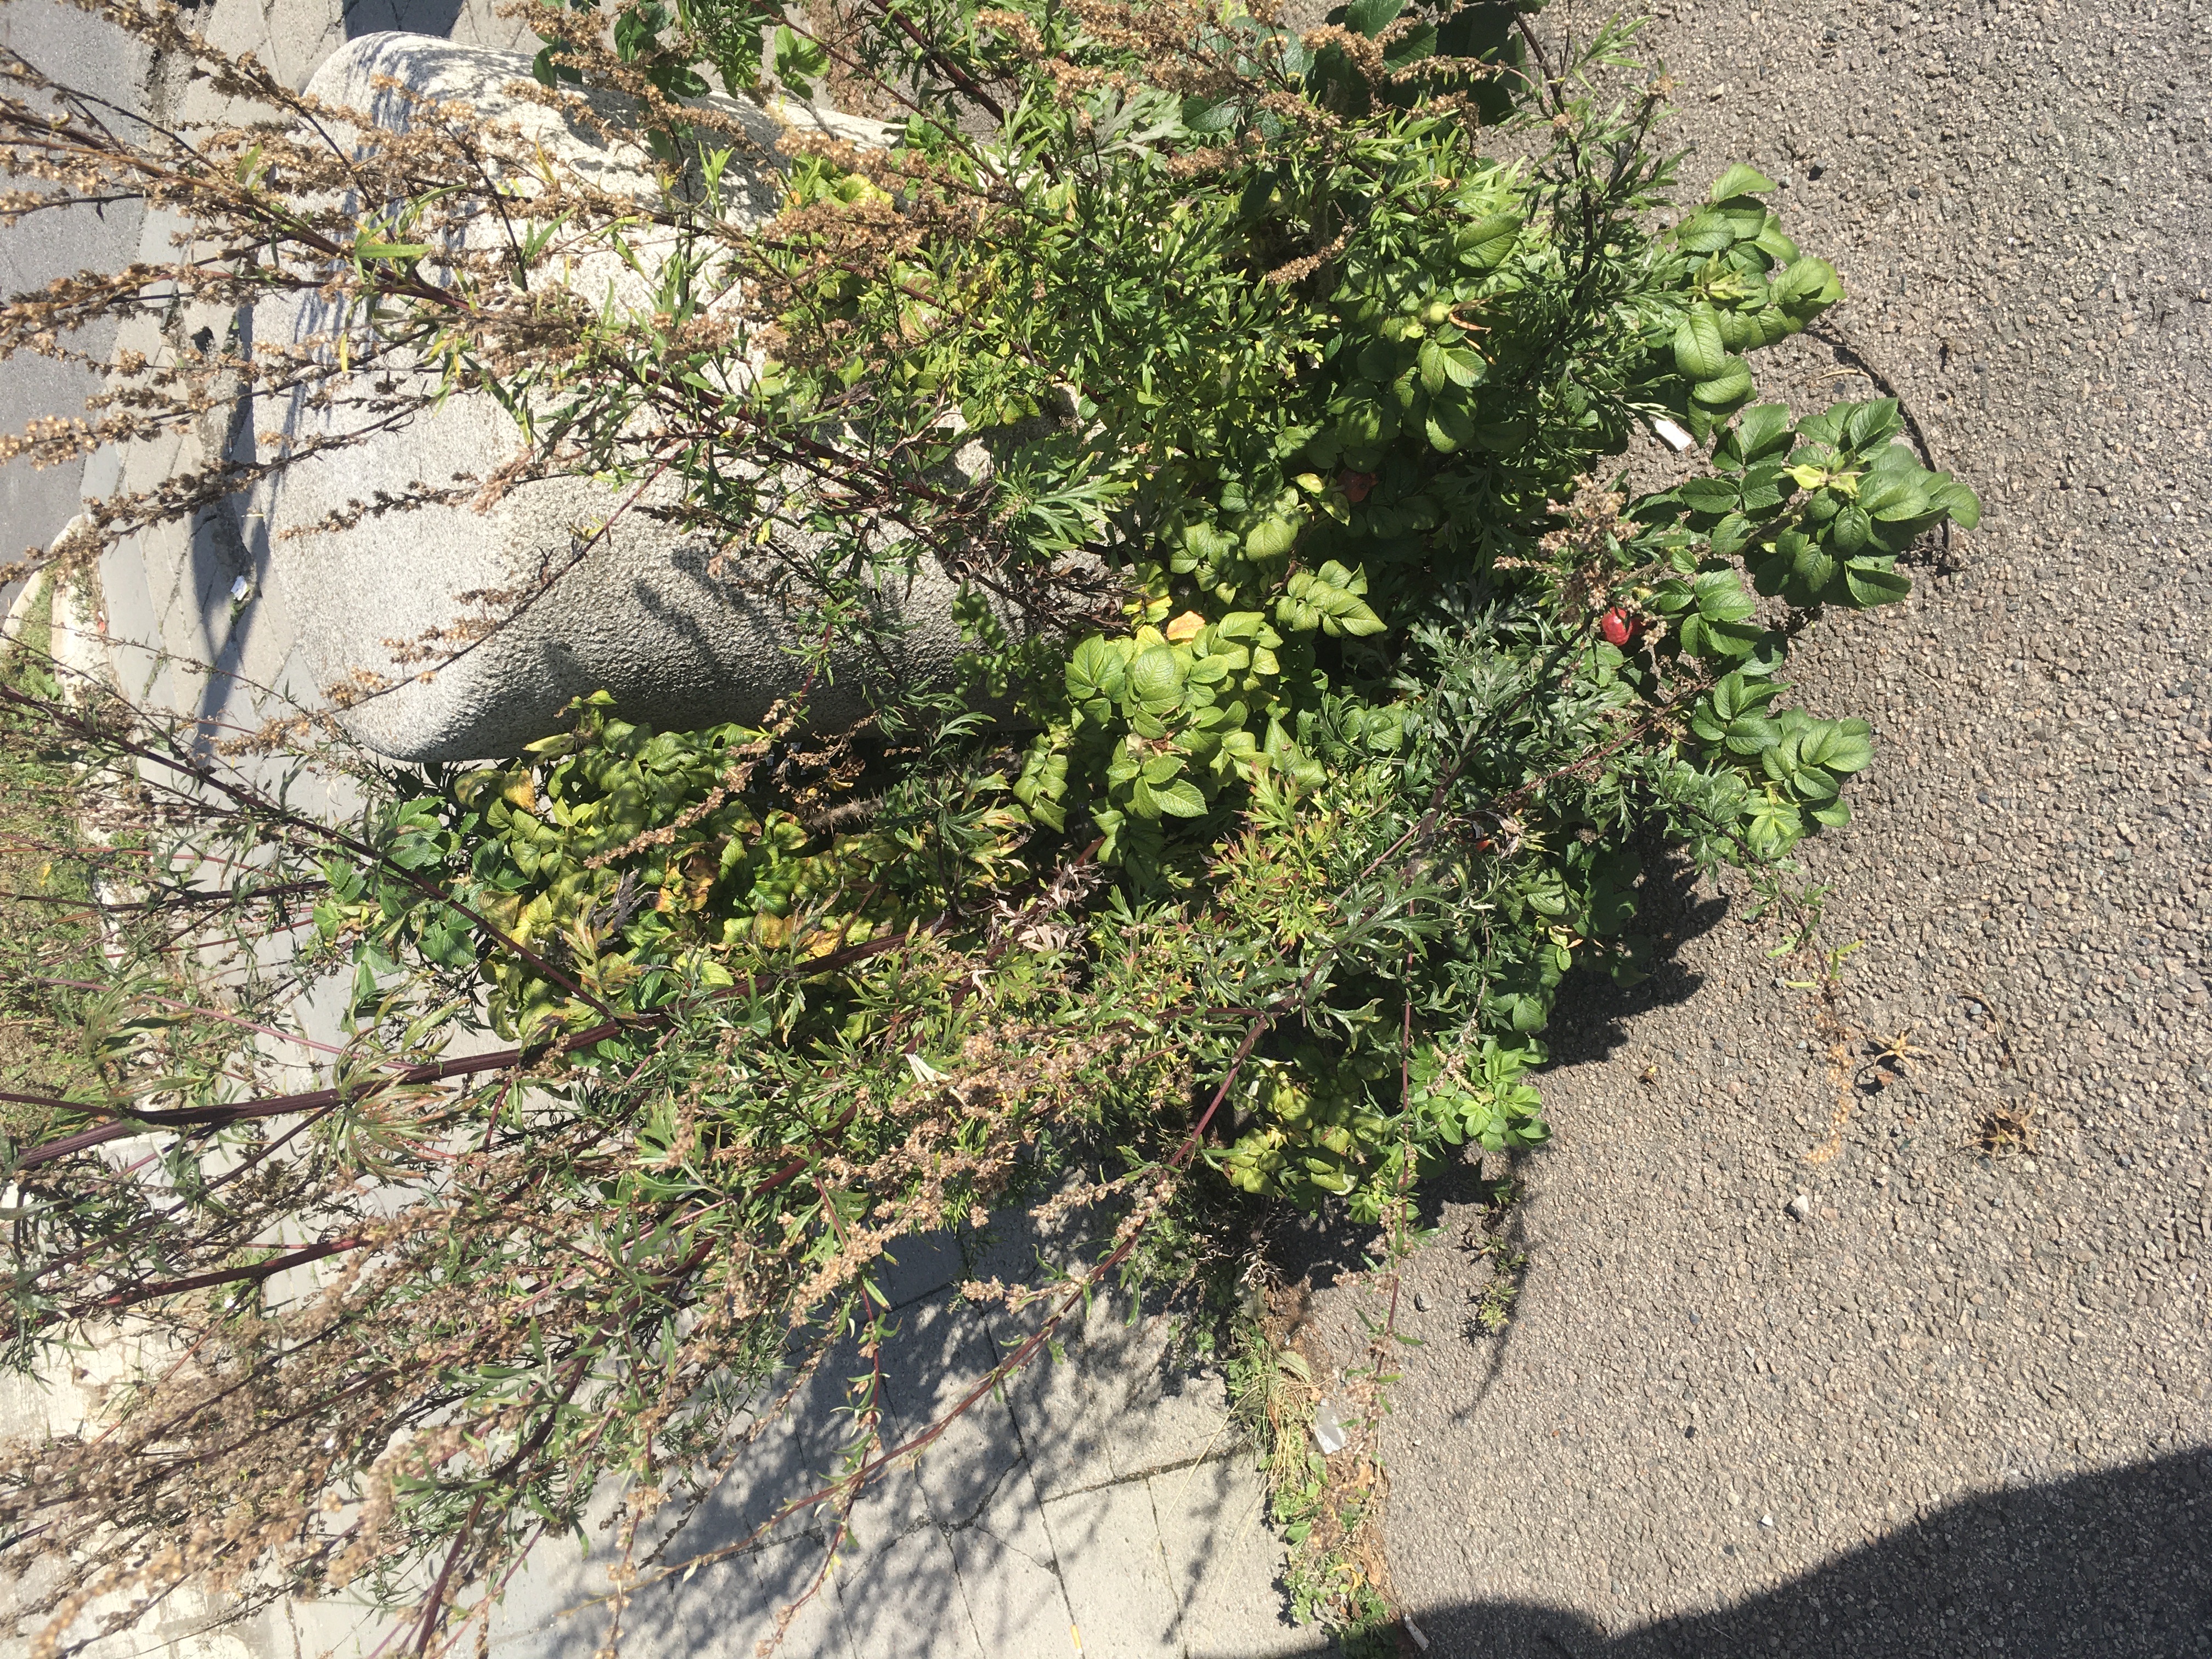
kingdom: Plantae
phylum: Tracheophyta
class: Magnoliopsida
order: Rosales
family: Rosaceae
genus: Rosa
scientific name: Rosa rugosa
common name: rynkerose
